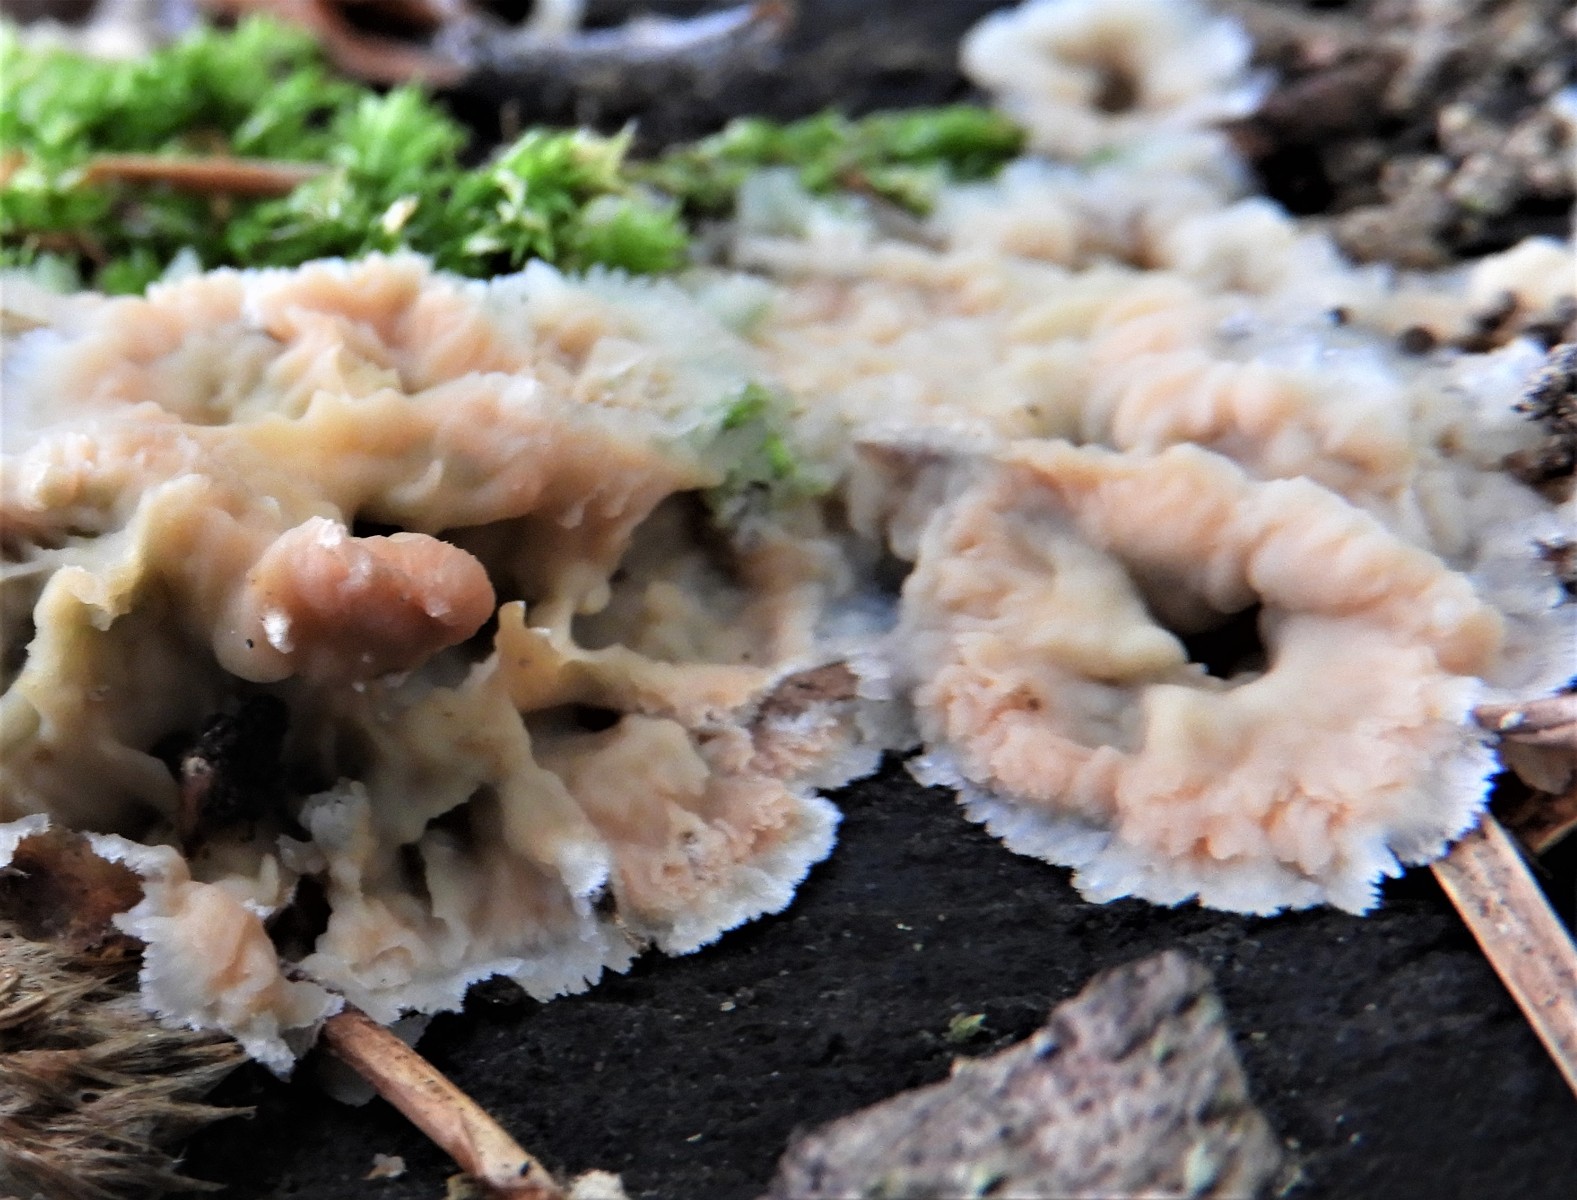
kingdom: Fungi
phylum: Basidiomycota
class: Agaricomycetes
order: Polyporales
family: Meruliaceae
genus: Phlebia
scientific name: Phlebia tremellosa
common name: bævrende åresvamp
